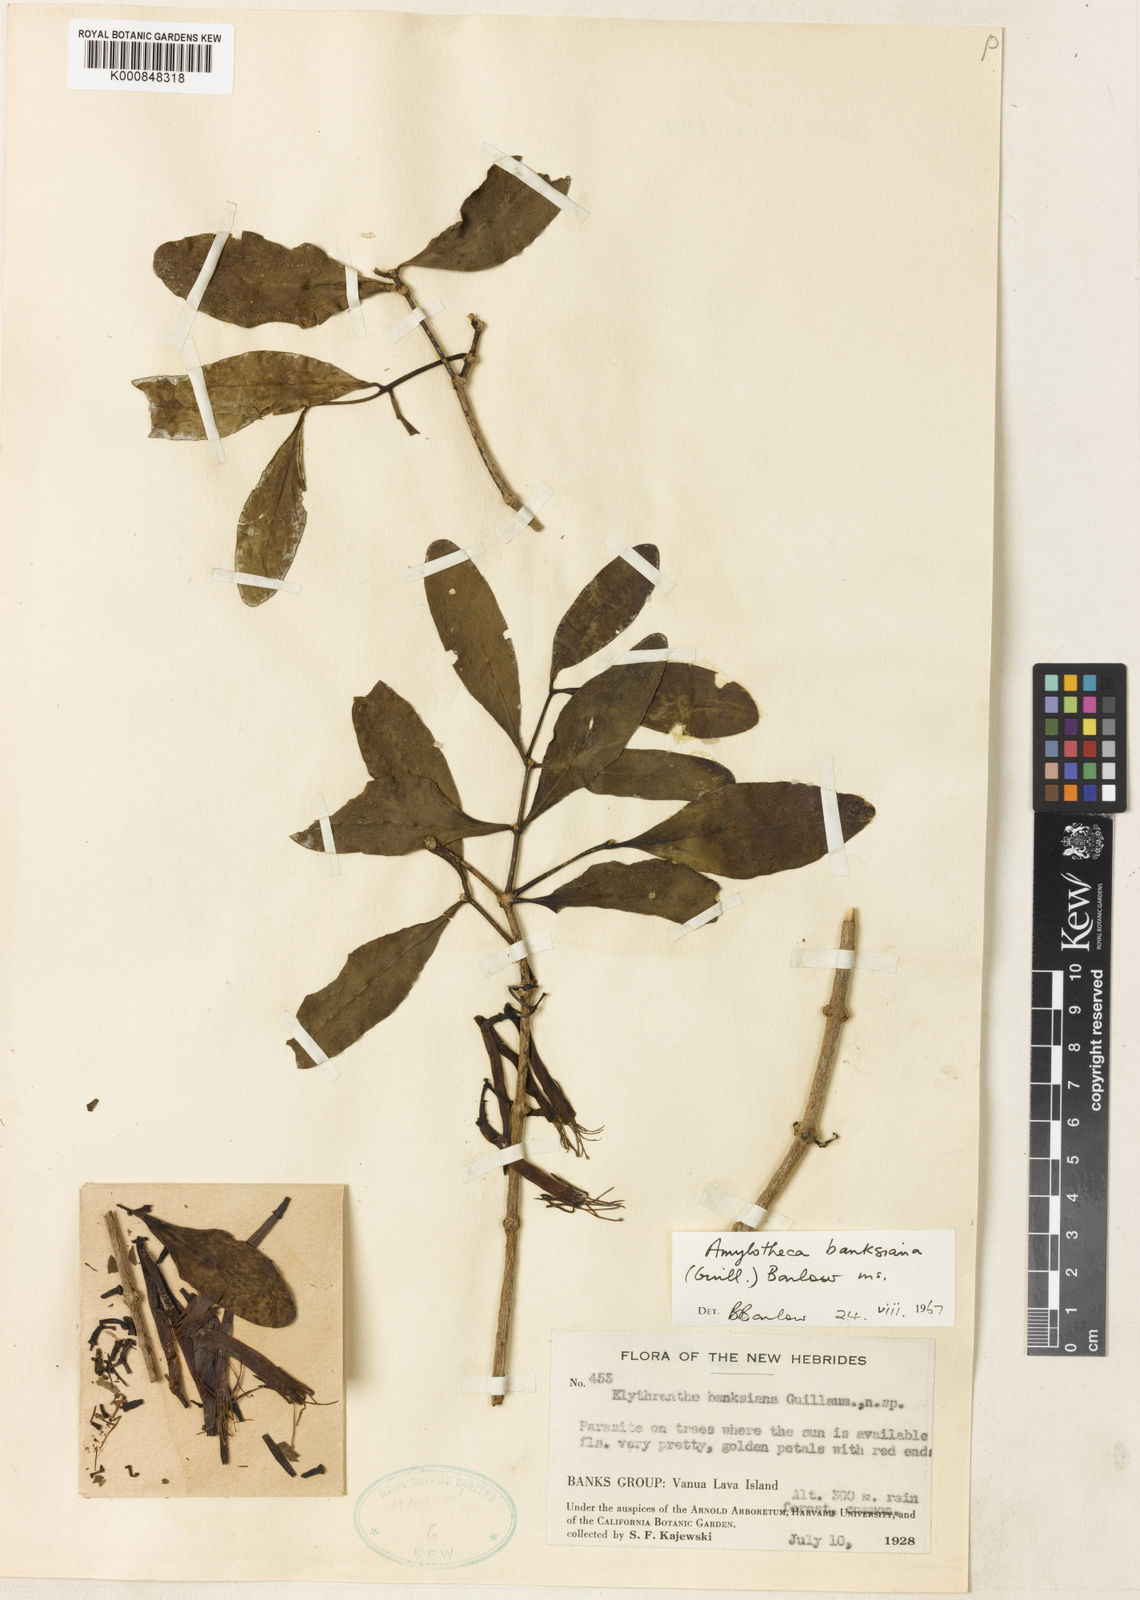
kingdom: Plantae
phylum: Tracheophyta
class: Magnoliopsida
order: Santalales
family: Loranthaceae
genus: Amylotheca
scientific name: Amylotheca dictyophleba
